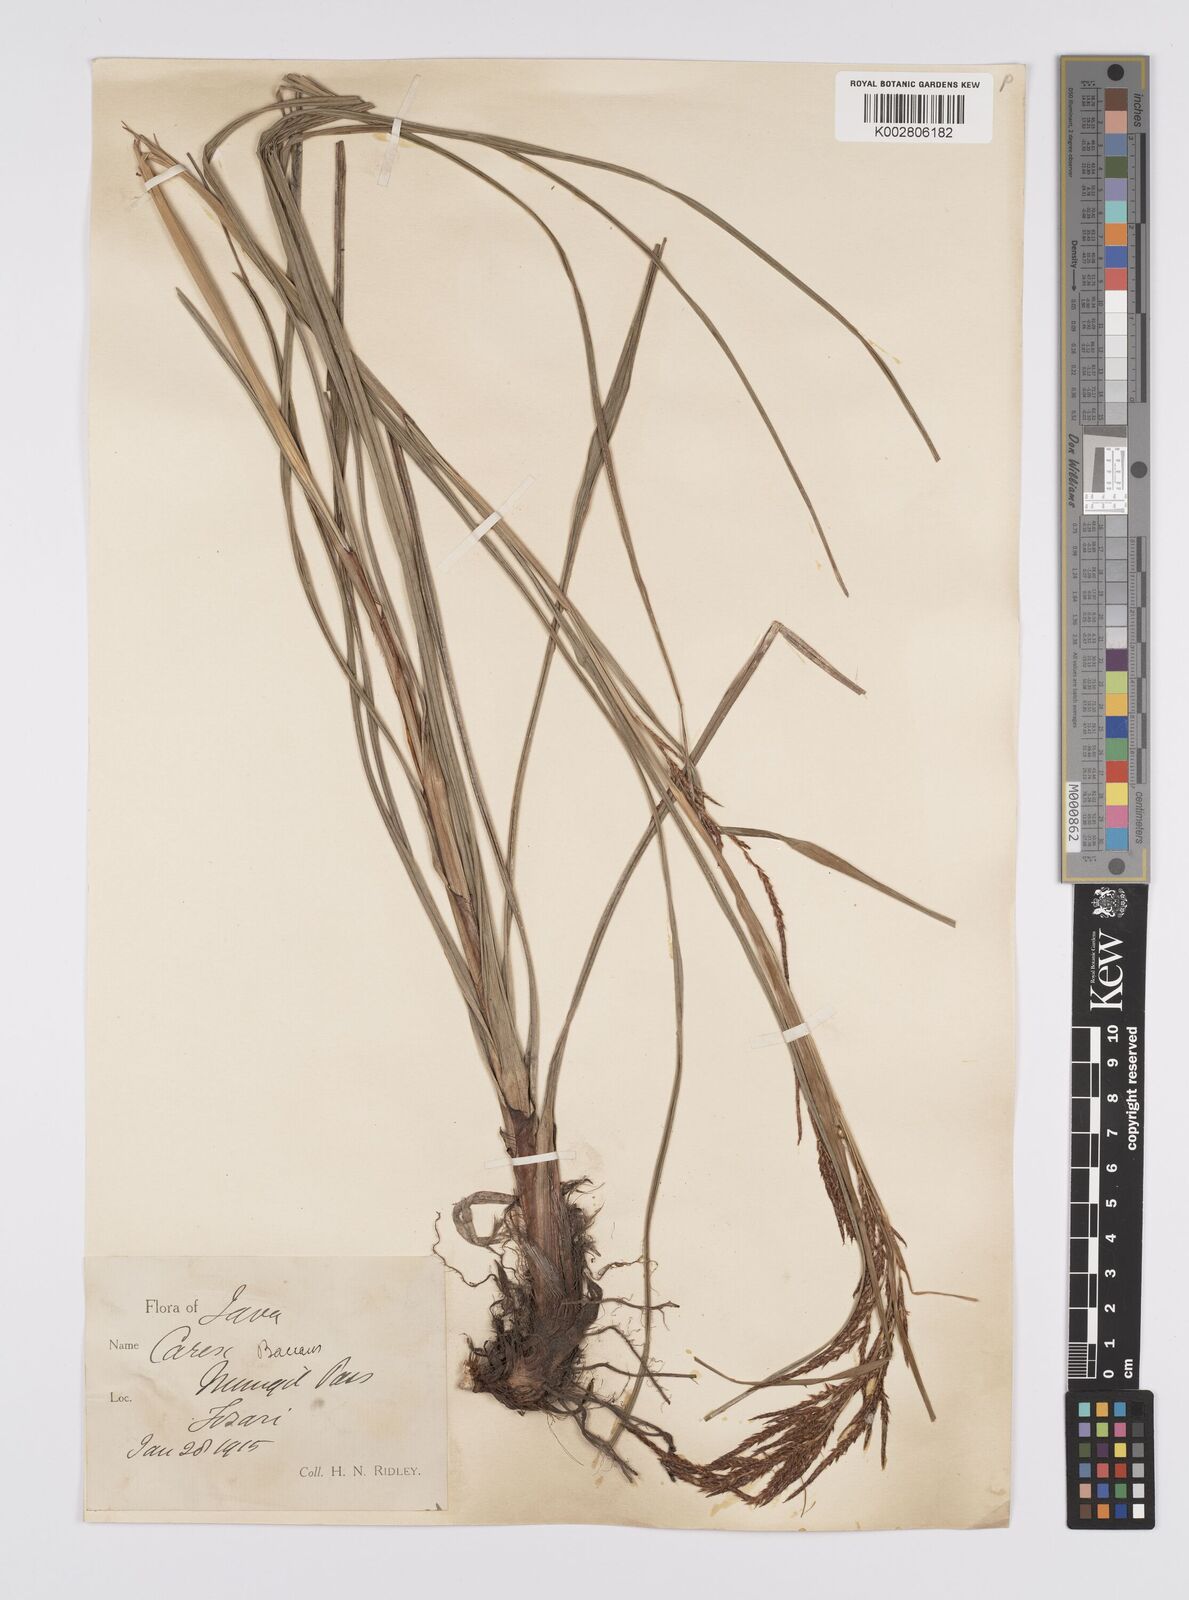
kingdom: Plantae
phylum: Tracheophyta
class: Liliopsida
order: Poales
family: Cyperaceae
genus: Carex
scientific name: Carex baccans
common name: Crimson seeded sedge
